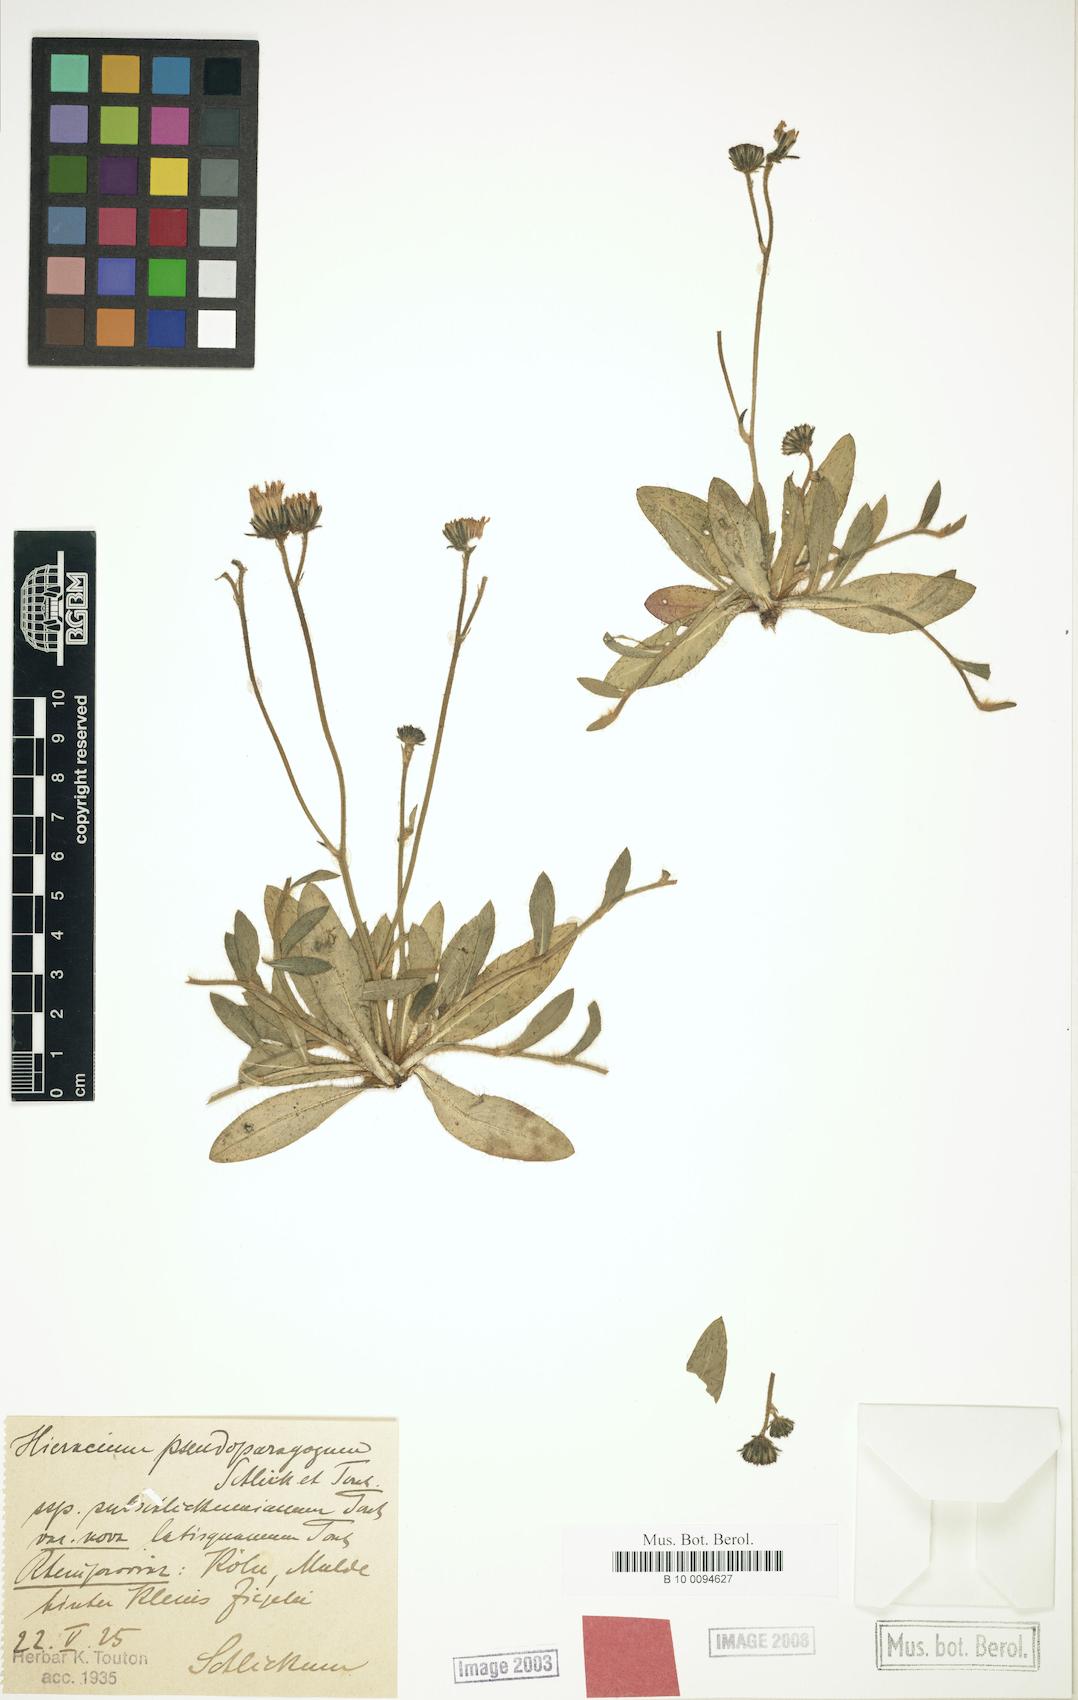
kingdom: Plantae
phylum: Tracheophyta
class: Magnoliopsida
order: Asterales
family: Asteraceae
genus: Pilosella
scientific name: Pilosella pseudoparagoga
